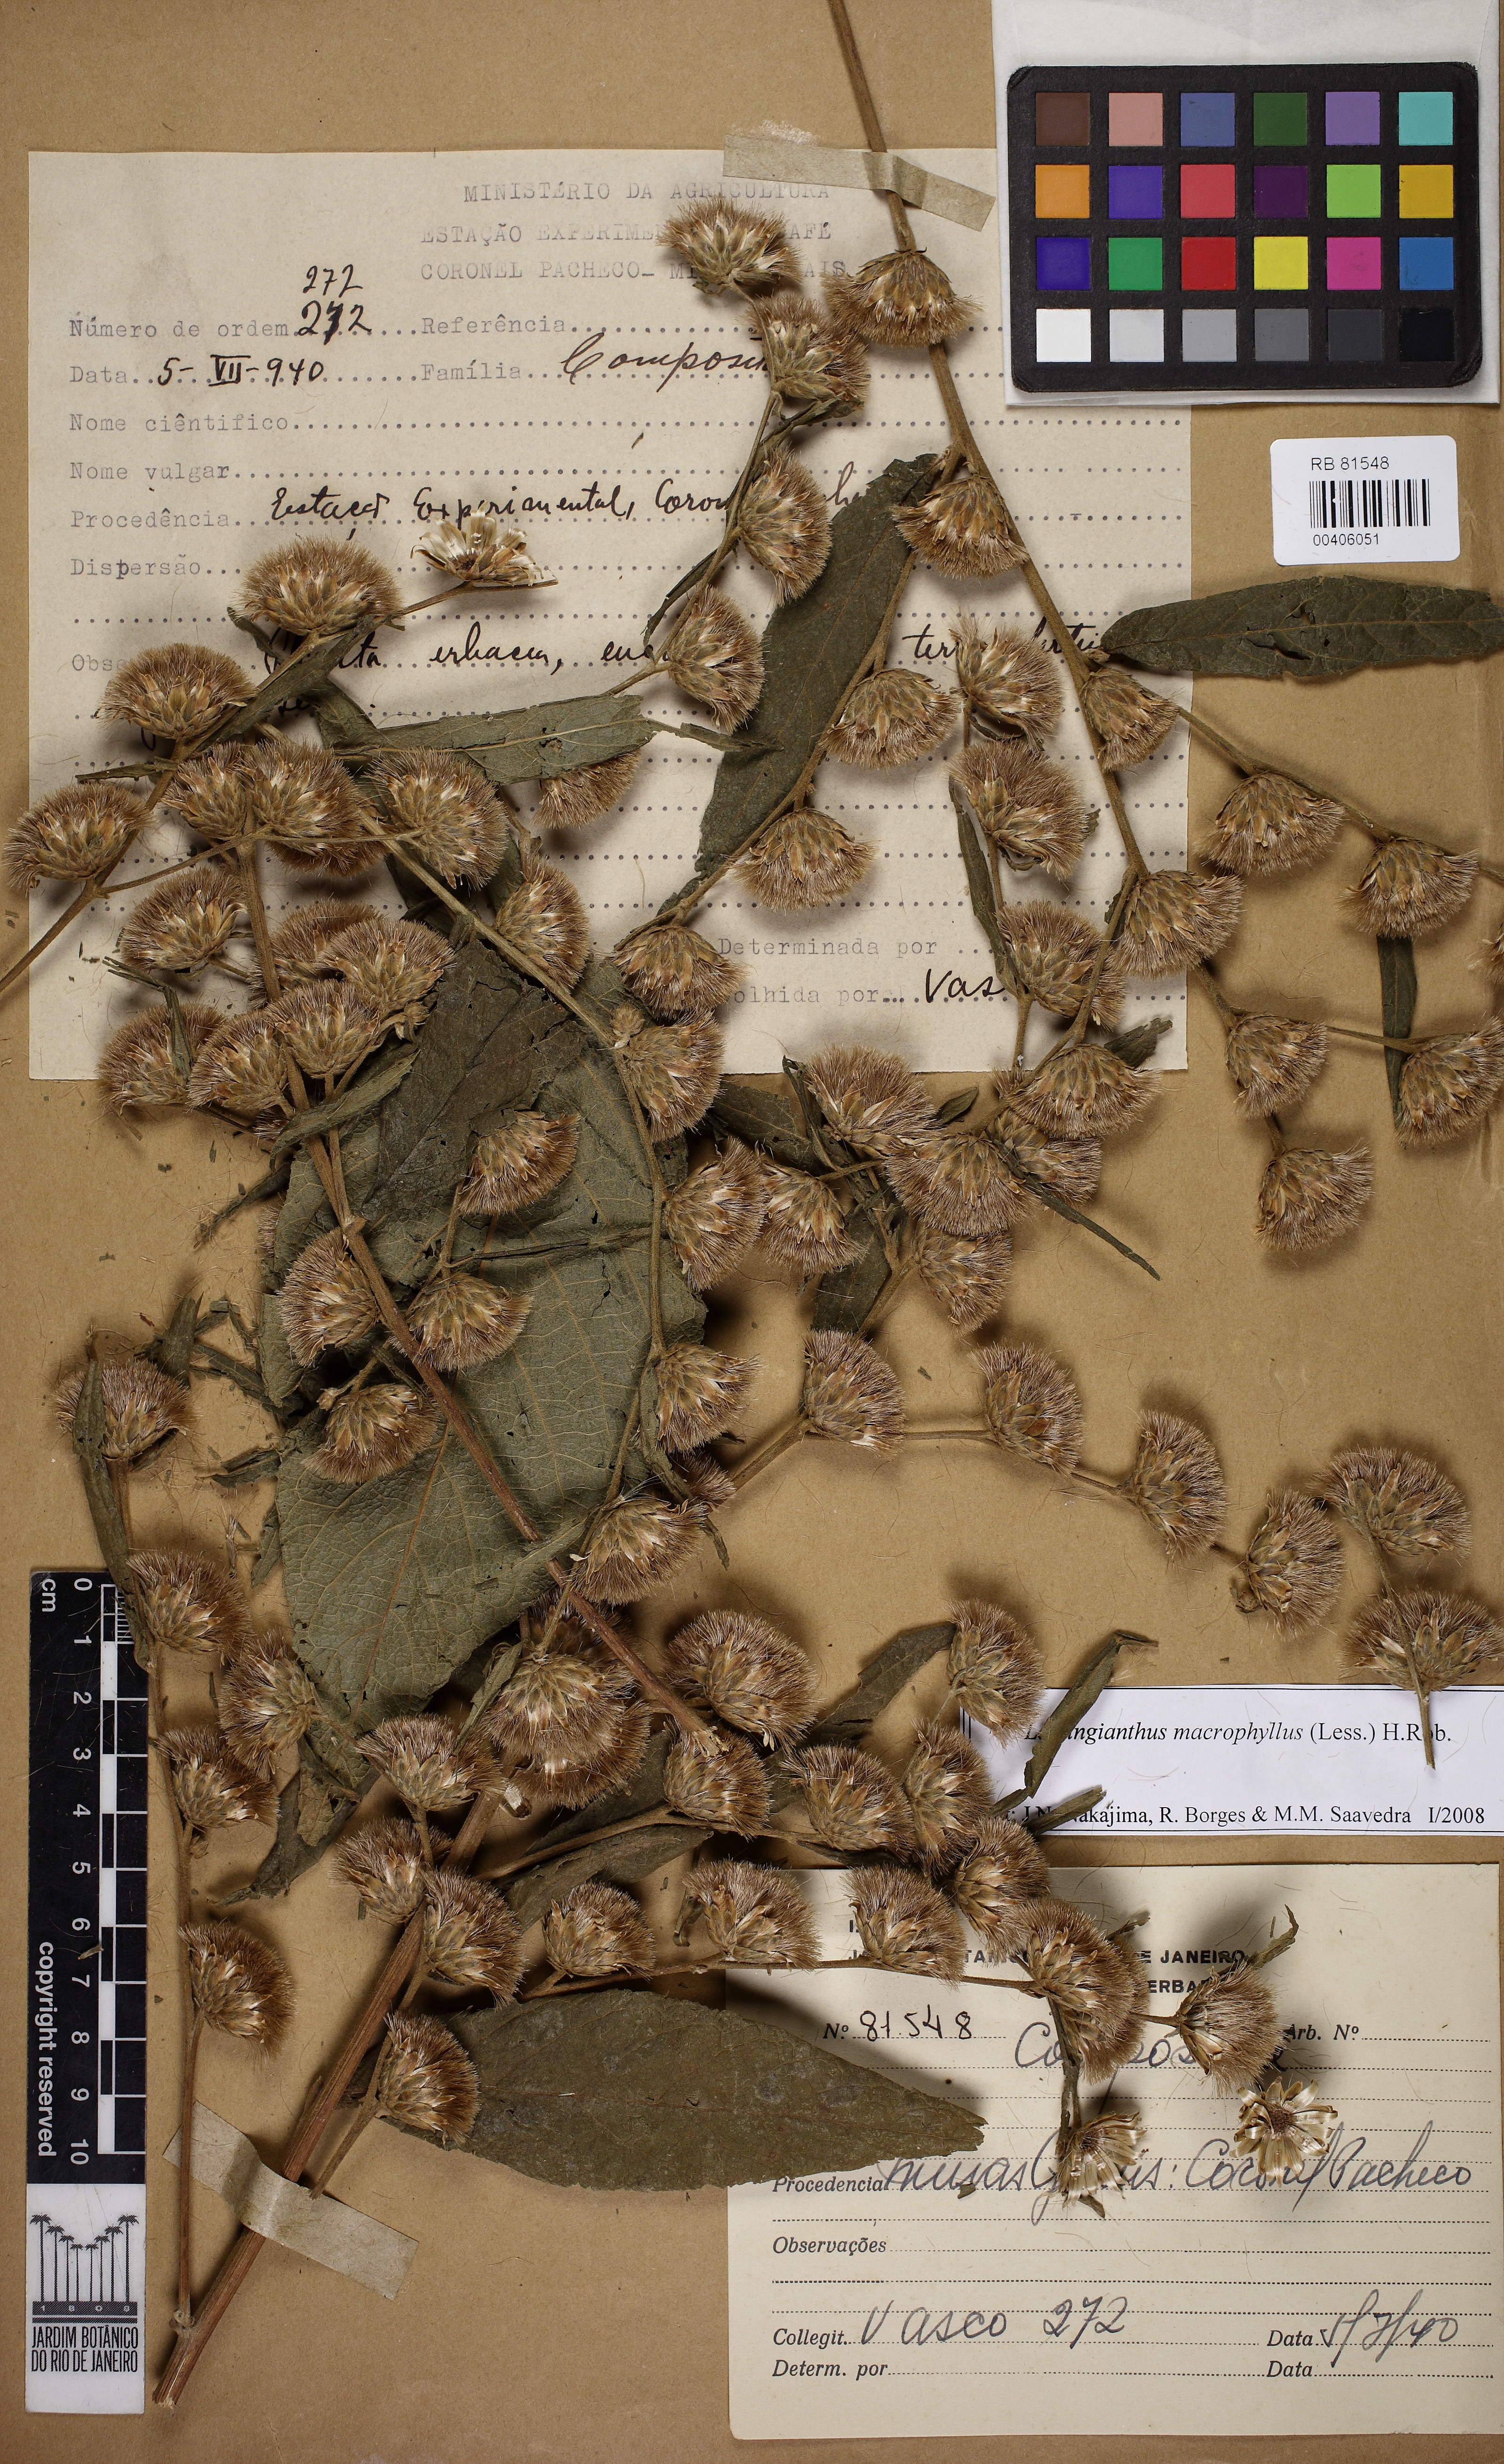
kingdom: Plantae
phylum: Tracheophyta
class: Magnoliopsida
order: Asterales
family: Asteraceae
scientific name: Asteraceae
